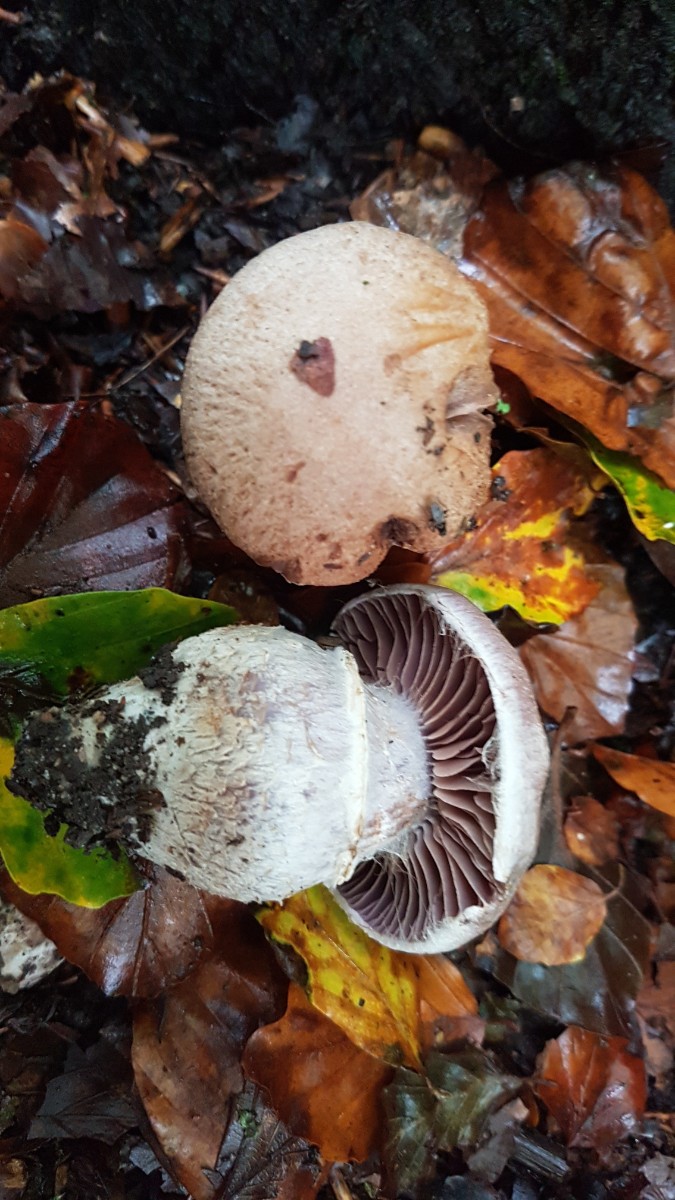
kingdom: Fungi
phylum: Basidiomycota
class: Agaricomycetes
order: Agaricales
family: Cortinariaceae
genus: Cortinarius
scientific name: Cortinarius torvus
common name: champignonagtig slørhat
